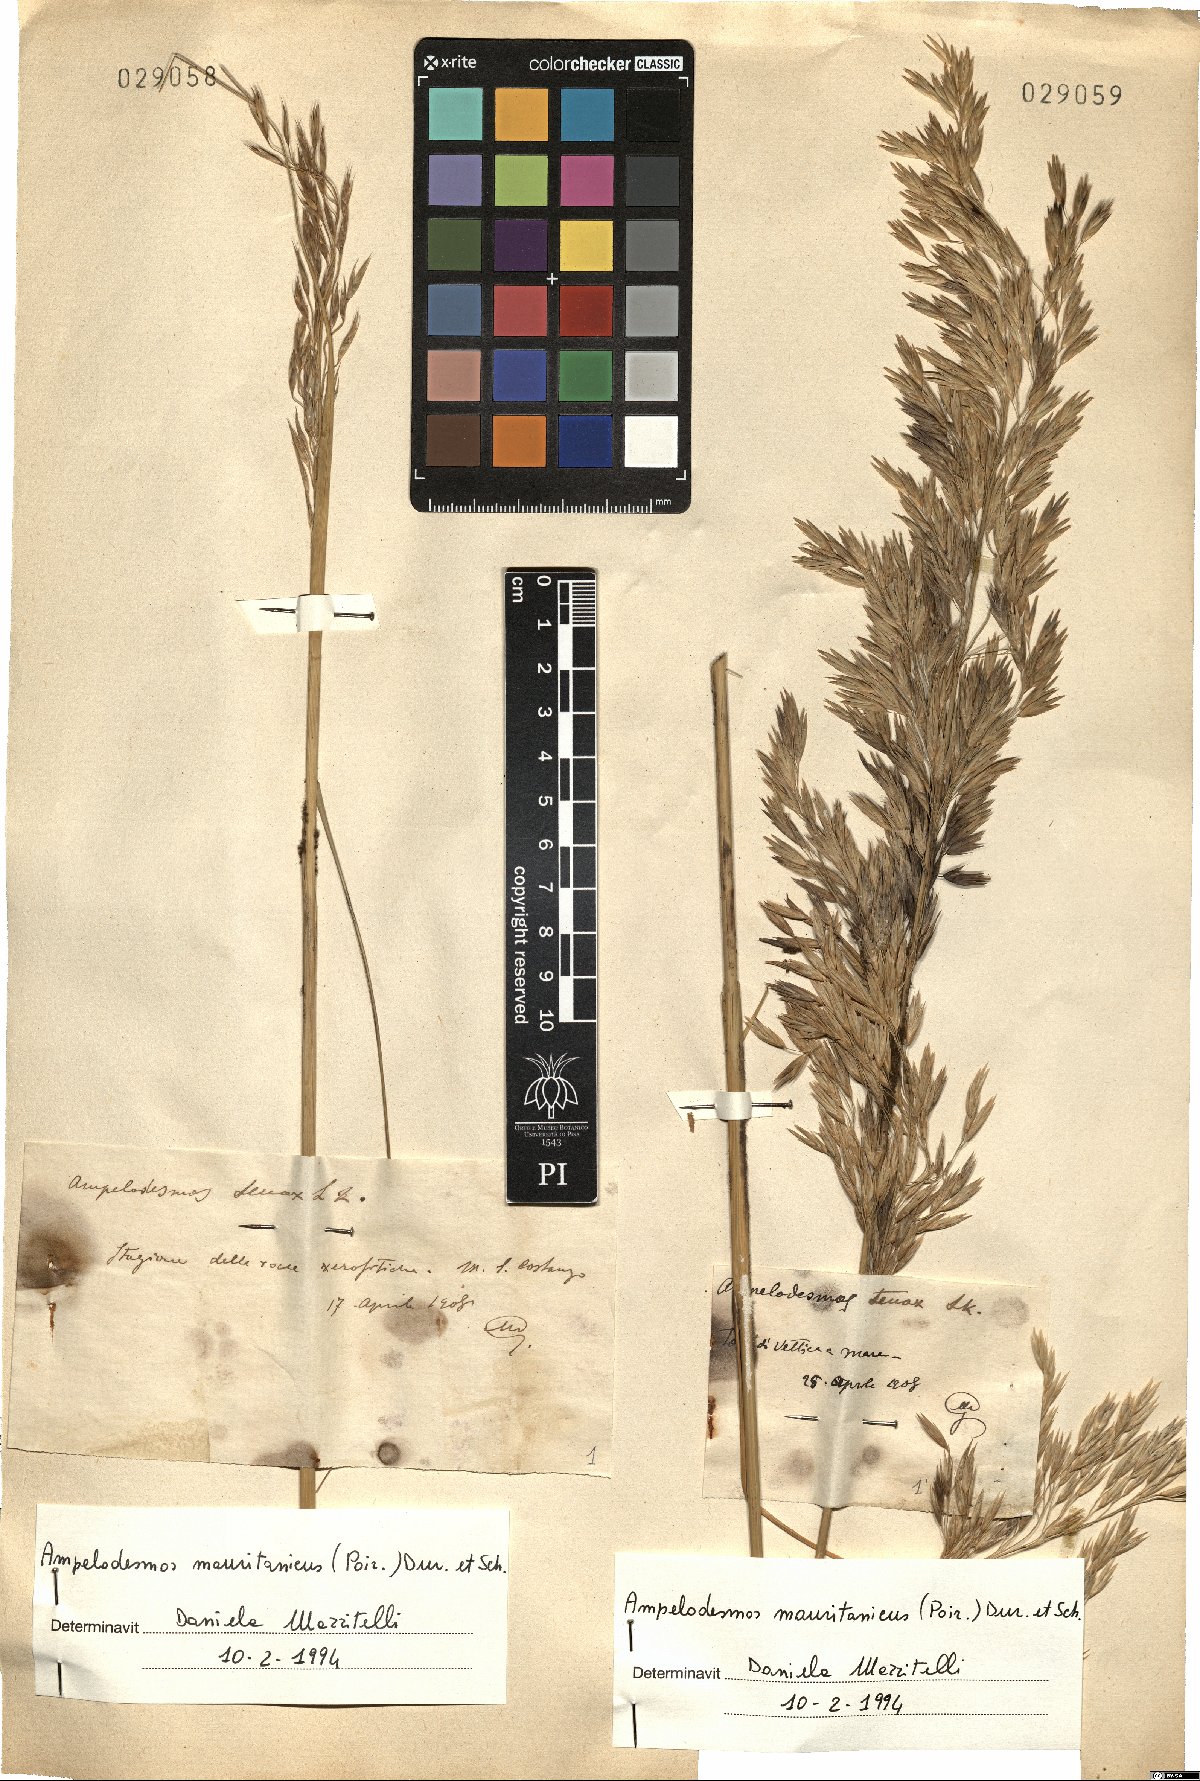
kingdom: Plantae
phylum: Tracheophyta
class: Liliopsida
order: Poales
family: Poaceae
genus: Ampelodesmos
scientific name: Ampelodesmos mauritanicus
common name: Mauritanian grass
